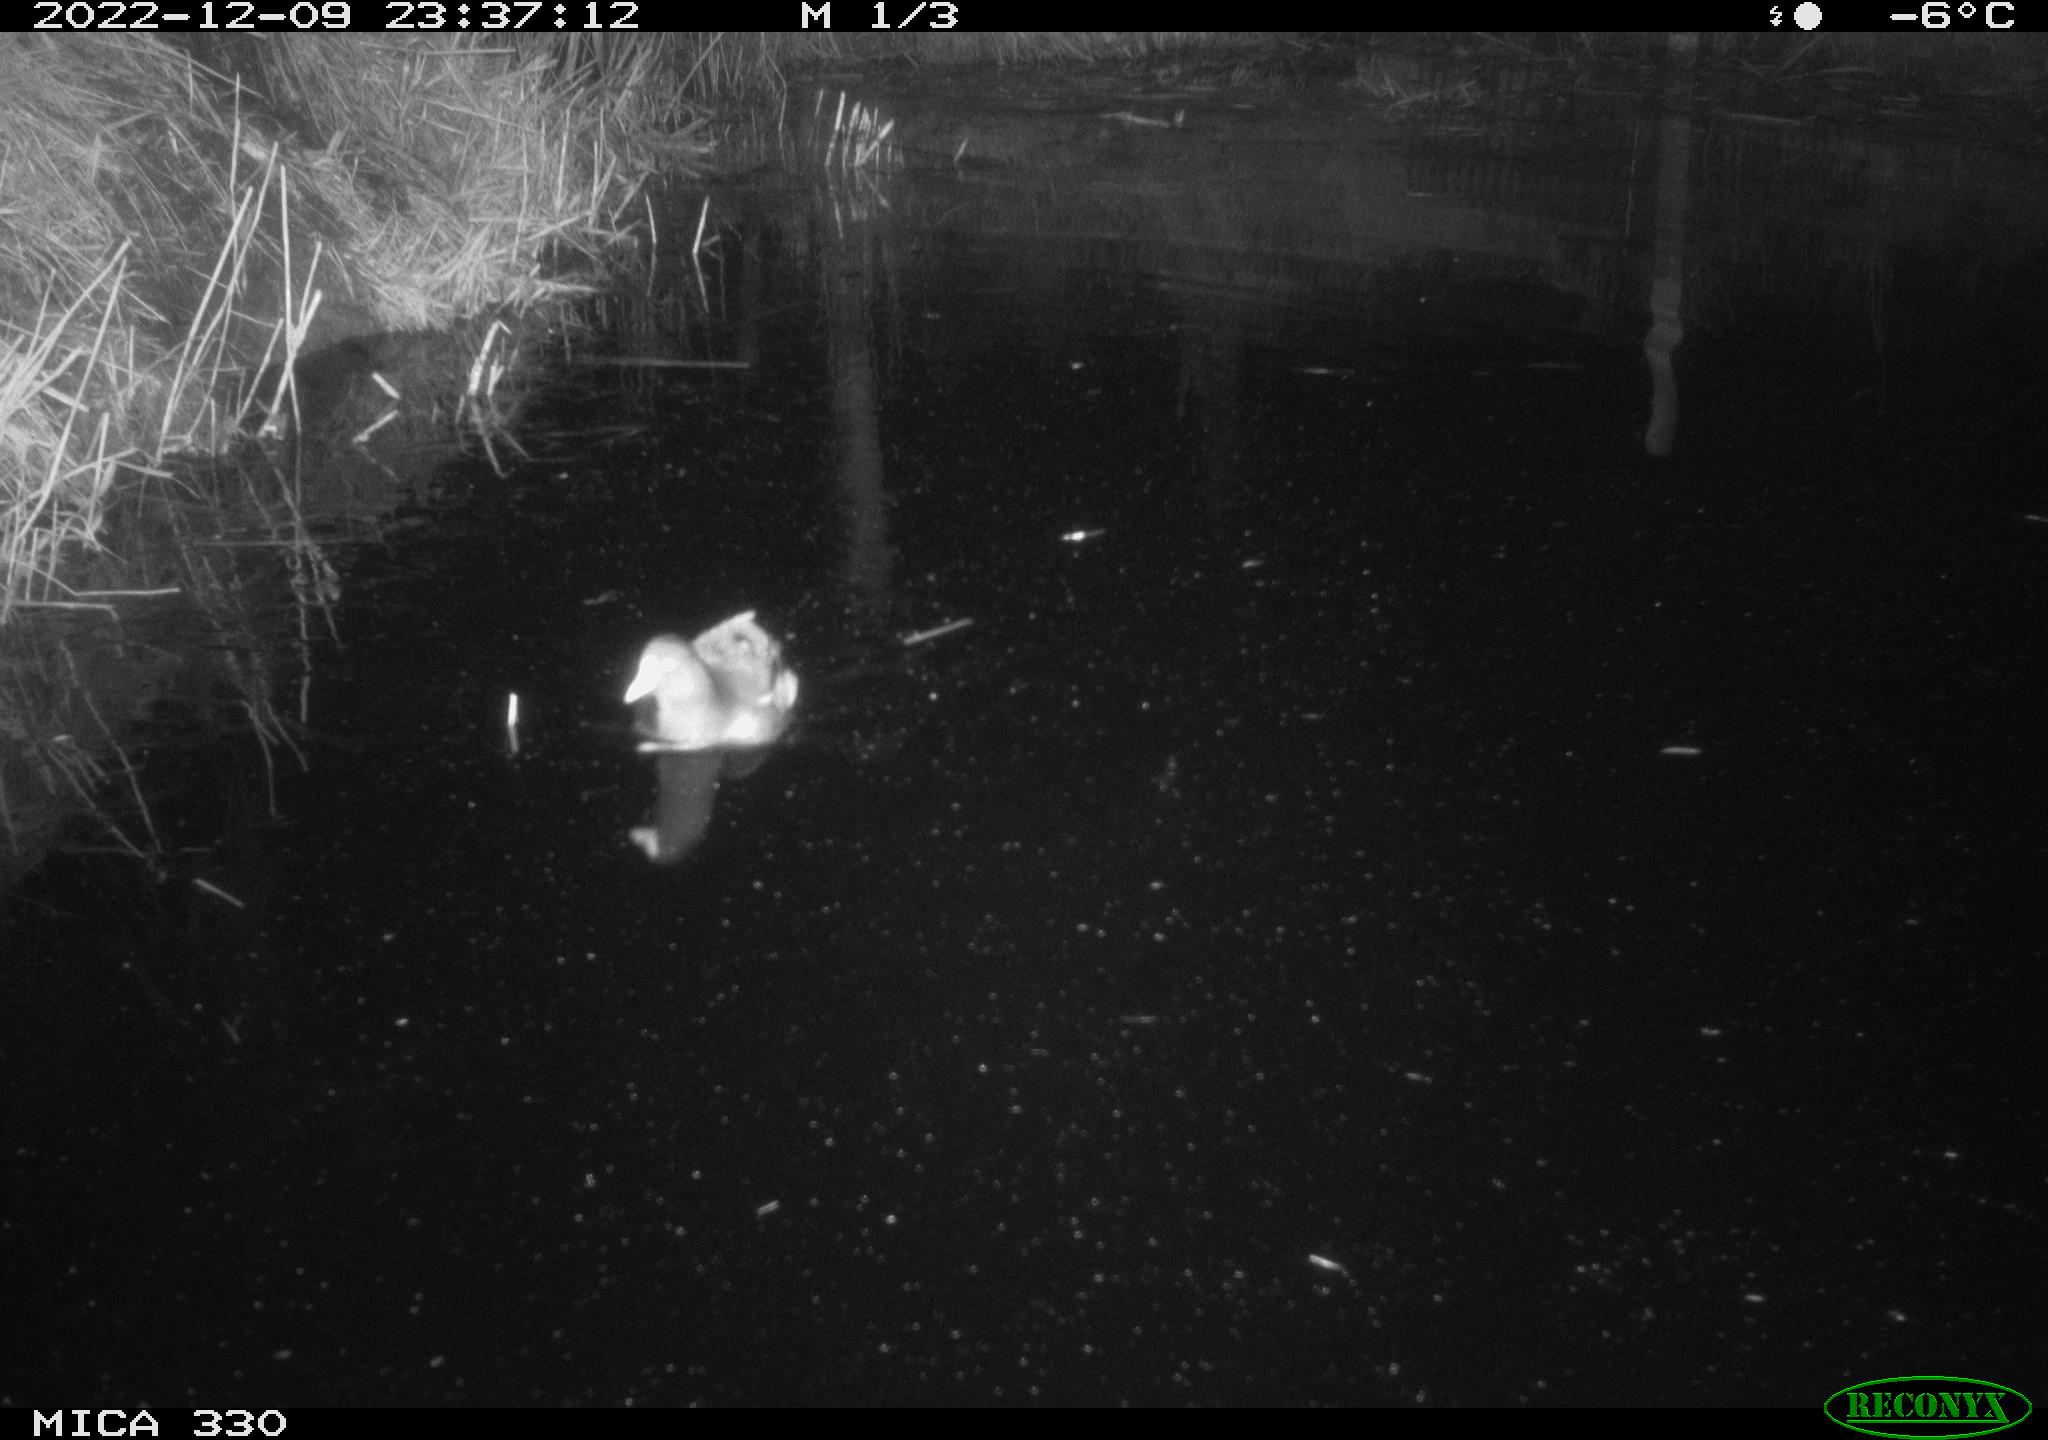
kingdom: Animalia
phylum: Chordata
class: Aves
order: Gruiformes
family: Rallidae
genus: Gallinula
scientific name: Gallinula chloropus
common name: Common moorhen
